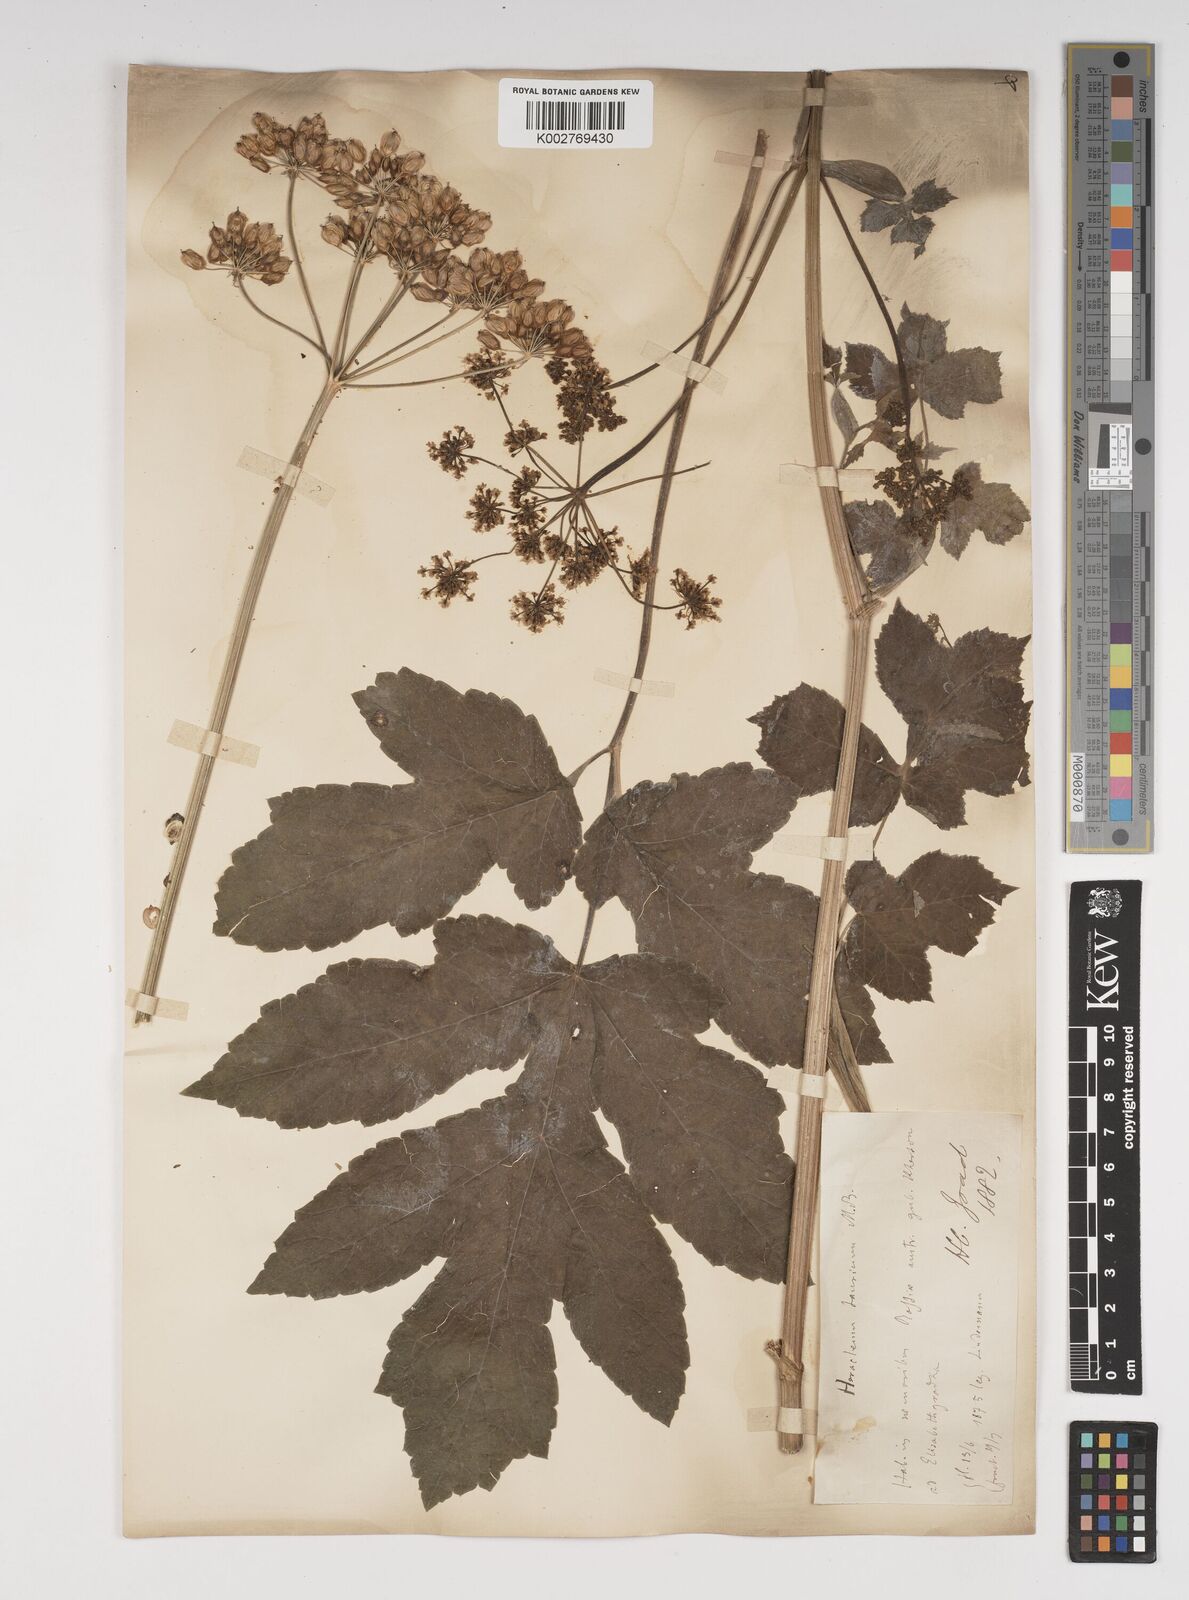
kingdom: Plantae
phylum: Tracheophyta
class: Magnoliopsida
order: Apiales
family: Apiaceae
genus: Heracleum
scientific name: Heracleum sphondylium
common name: Hogweed
